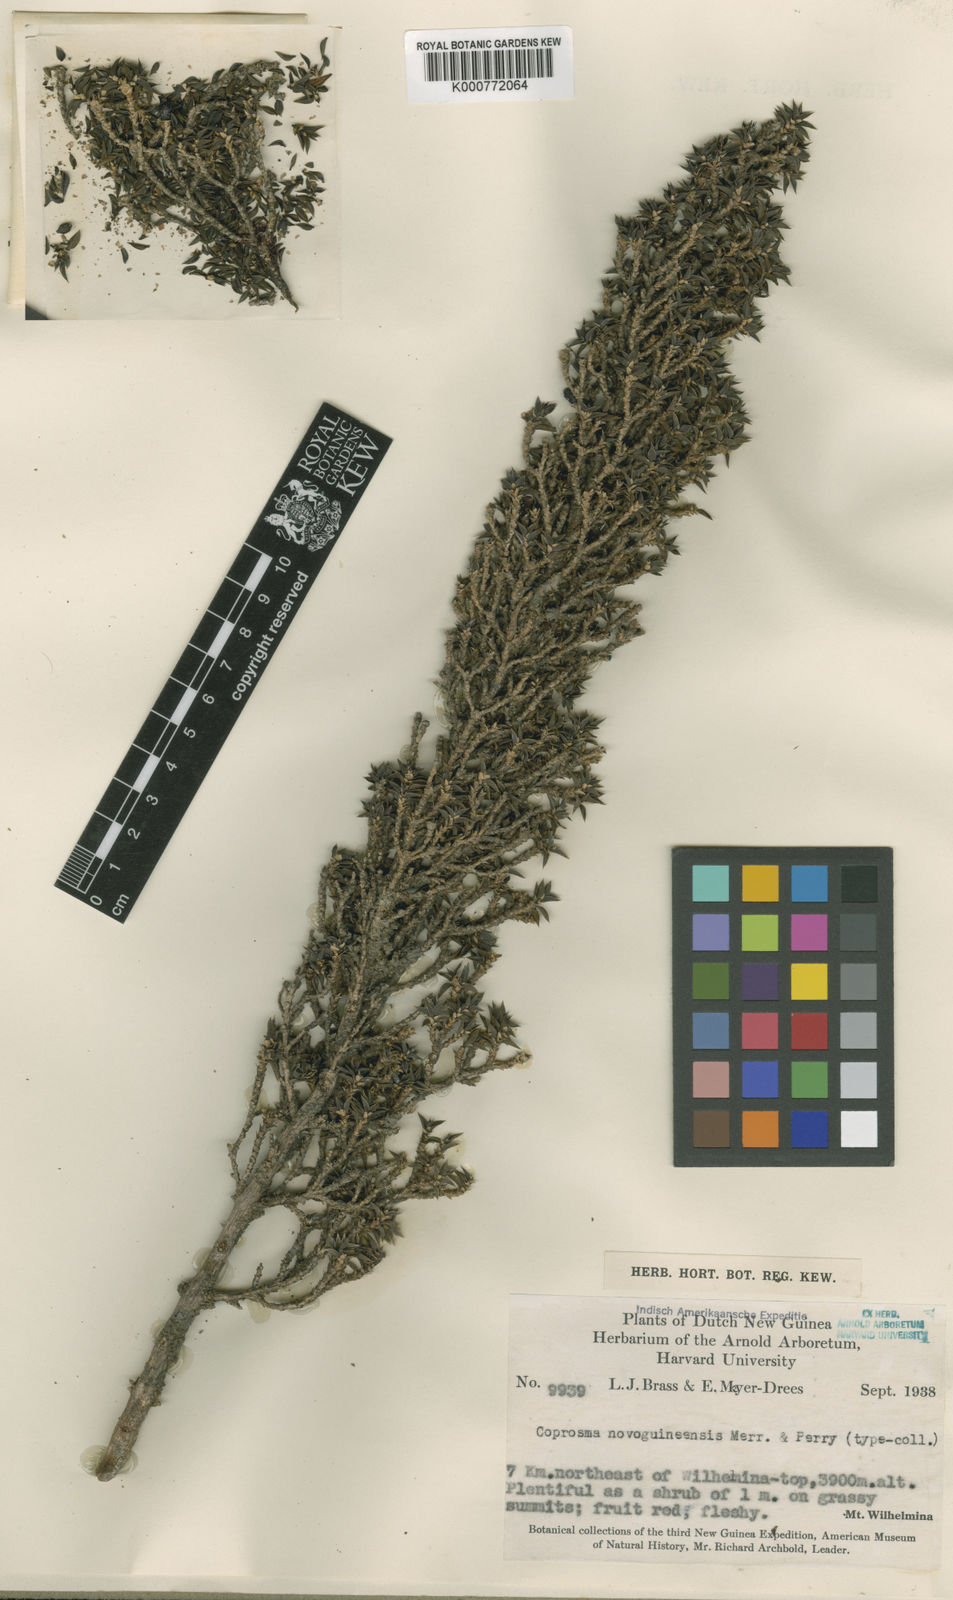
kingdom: Plantae
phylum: Tracheophyta
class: Magnoliopsida
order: Gentianales
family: Rubiaceae
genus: Coprosma
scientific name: Coprosma wollastonii
